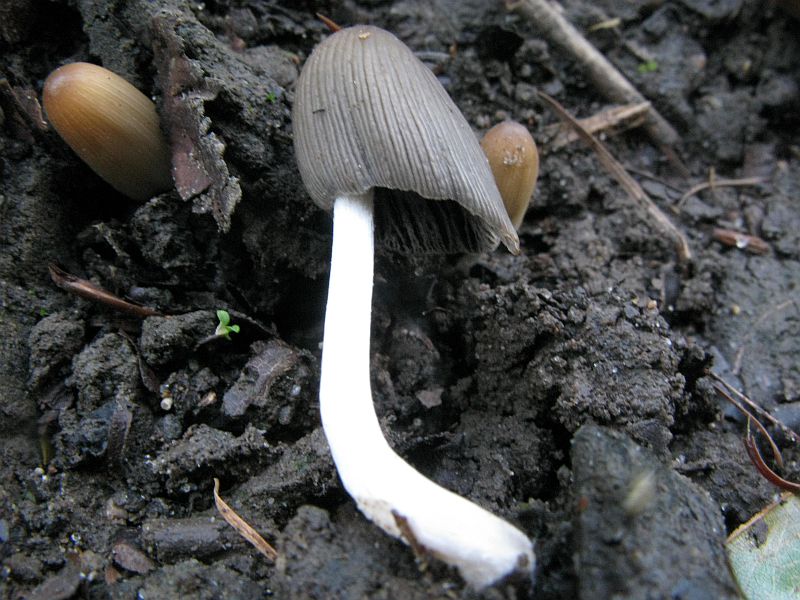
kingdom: Fungi
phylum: Basidiomycota
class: Agaricomycetes
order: Agaricales
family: Psathyrellaceae
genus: Parasola
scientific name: Parasola auricoma
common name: hansens hjulhat
